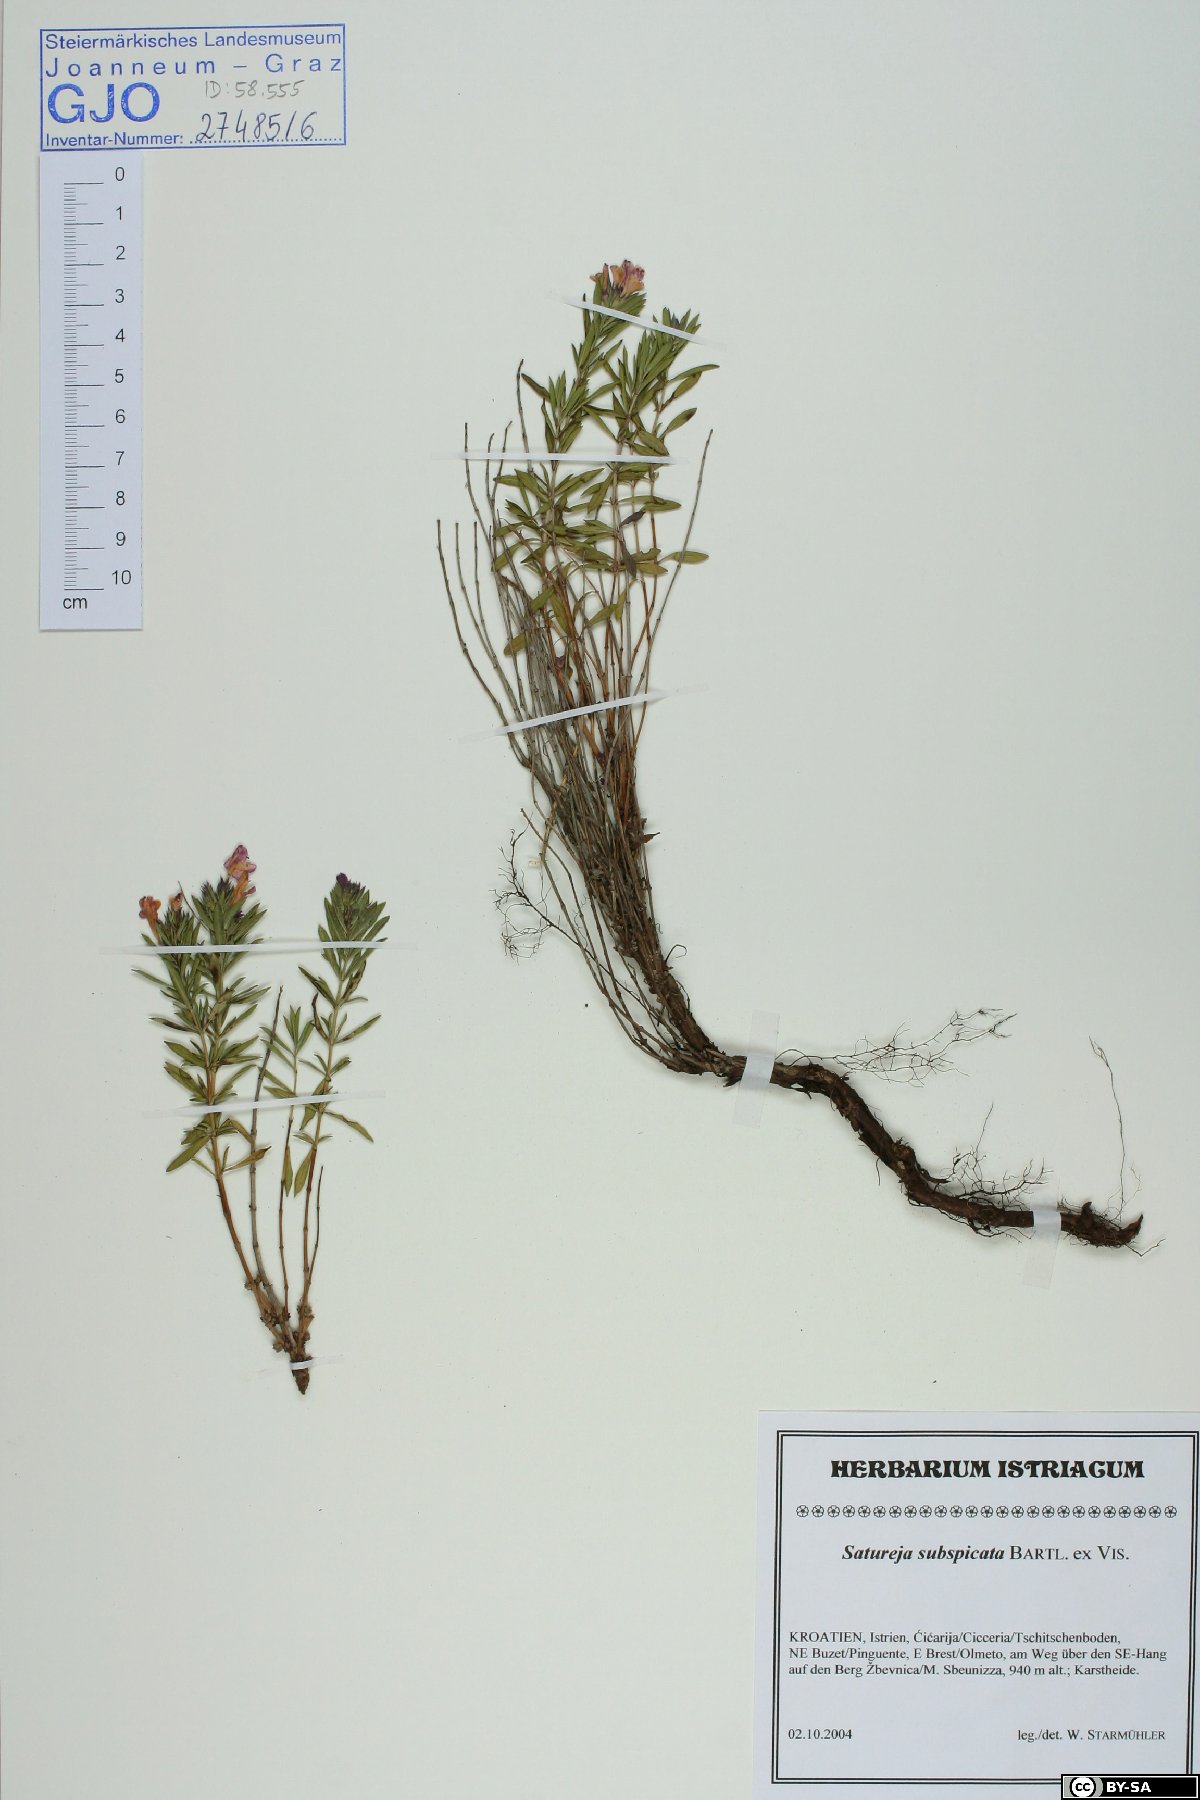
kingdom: Plantae
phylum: Tracheophyta
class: Magnoliopsida
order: Lamiales
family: Lamiaceae
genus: Satureja
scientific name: Satureja subspicata
